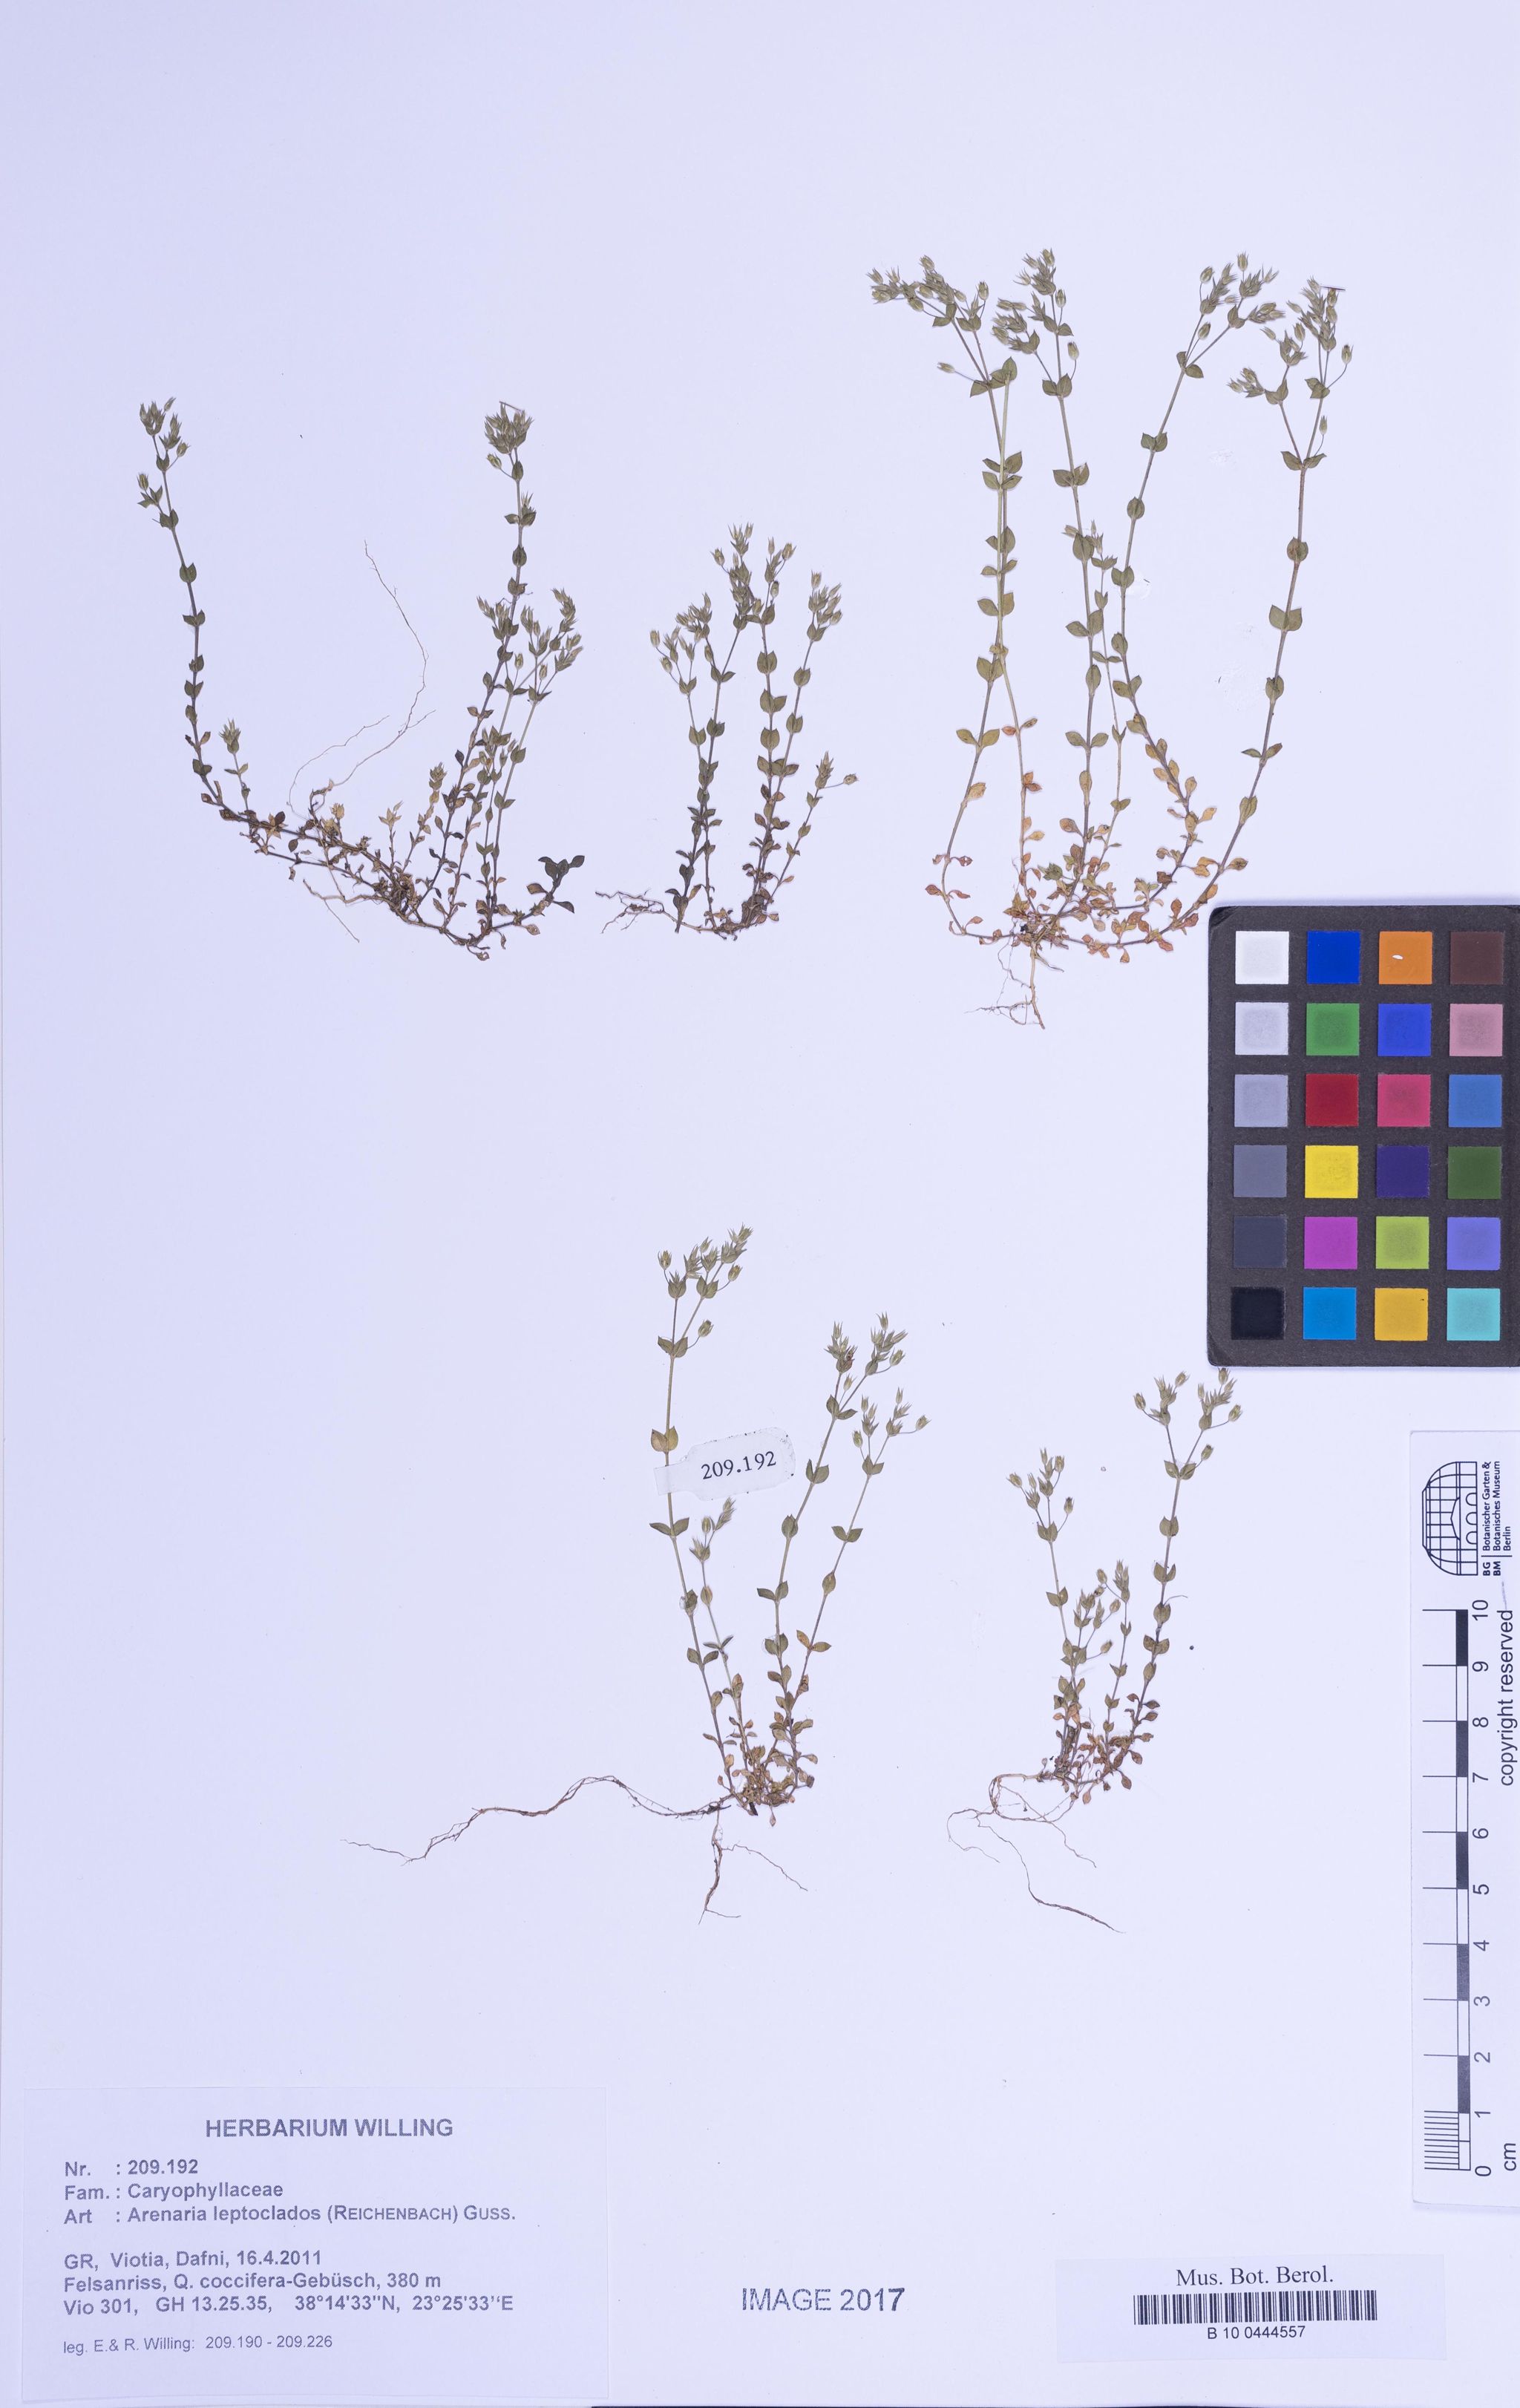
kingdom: Plantae
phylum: Tracheophyta
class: Magnoliopsida
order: Caryophyllales
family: Caryophyllaceae
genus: Arenaria
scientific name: Arenaria leptoclados
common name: Thyme-leaved sandwort
